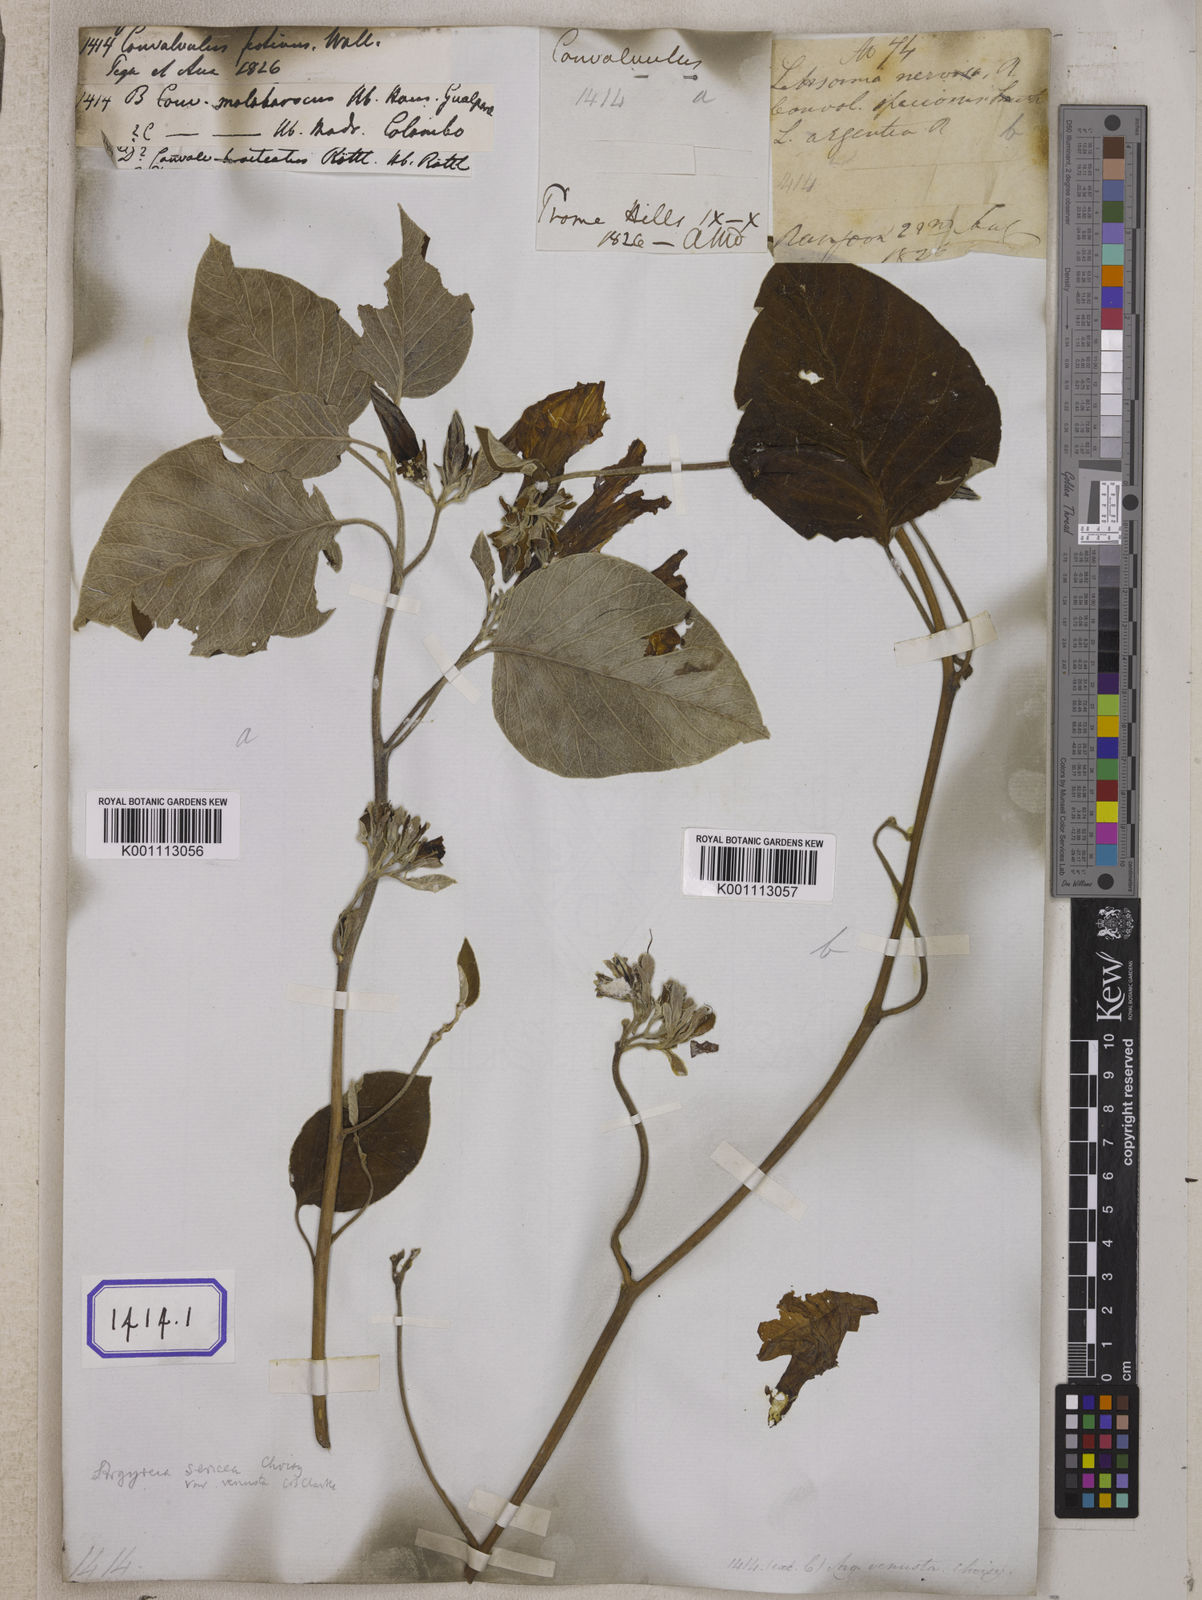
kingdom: Plantae
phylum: Tracheophyta
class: Magnoliopsida
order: Solanales
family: Convolvulaceae
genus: Argyreia
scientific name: Argyreia argentea
